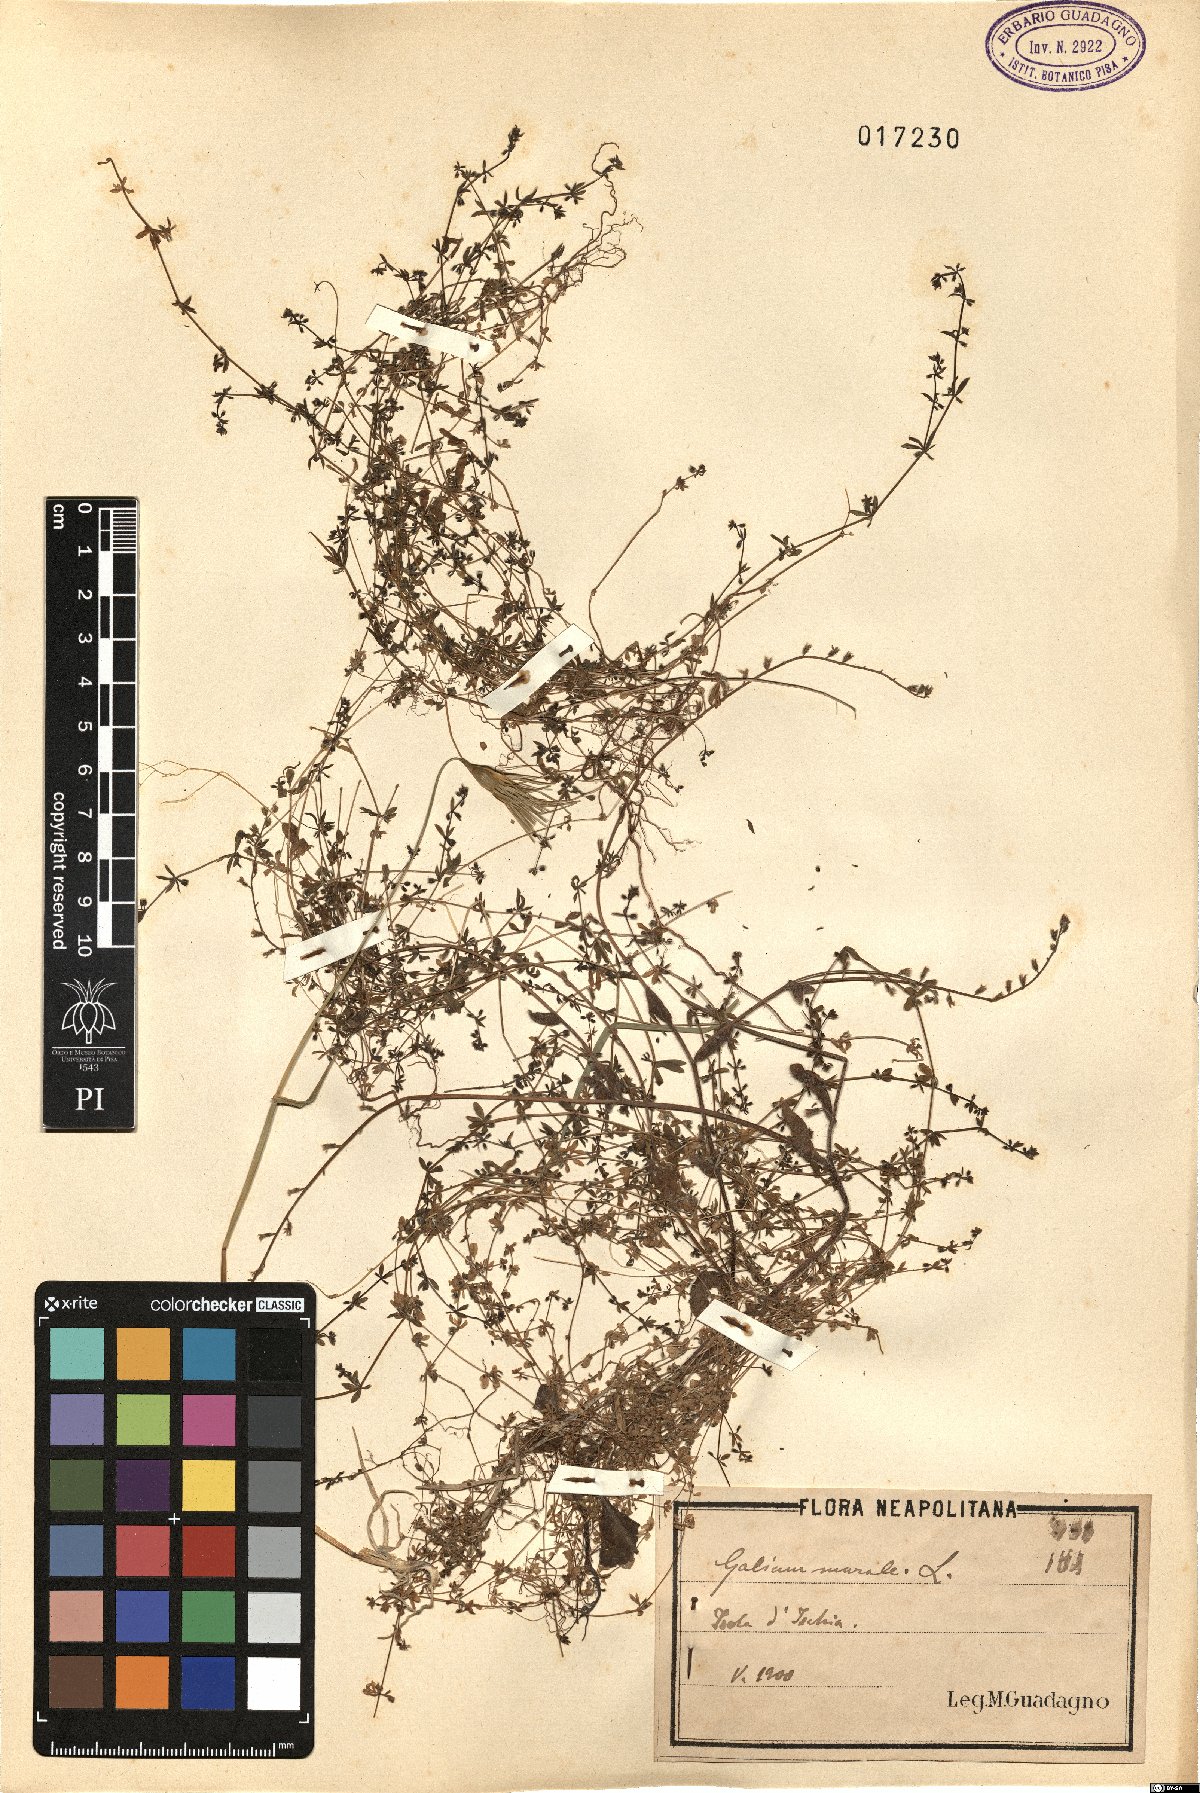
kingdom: Plantae
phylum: Tracheophyta
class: Magnoliopsida
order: Gentianales
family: Rubiaceae
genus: Galium
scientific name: Galium murale
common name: Yellow wall bedstraw
